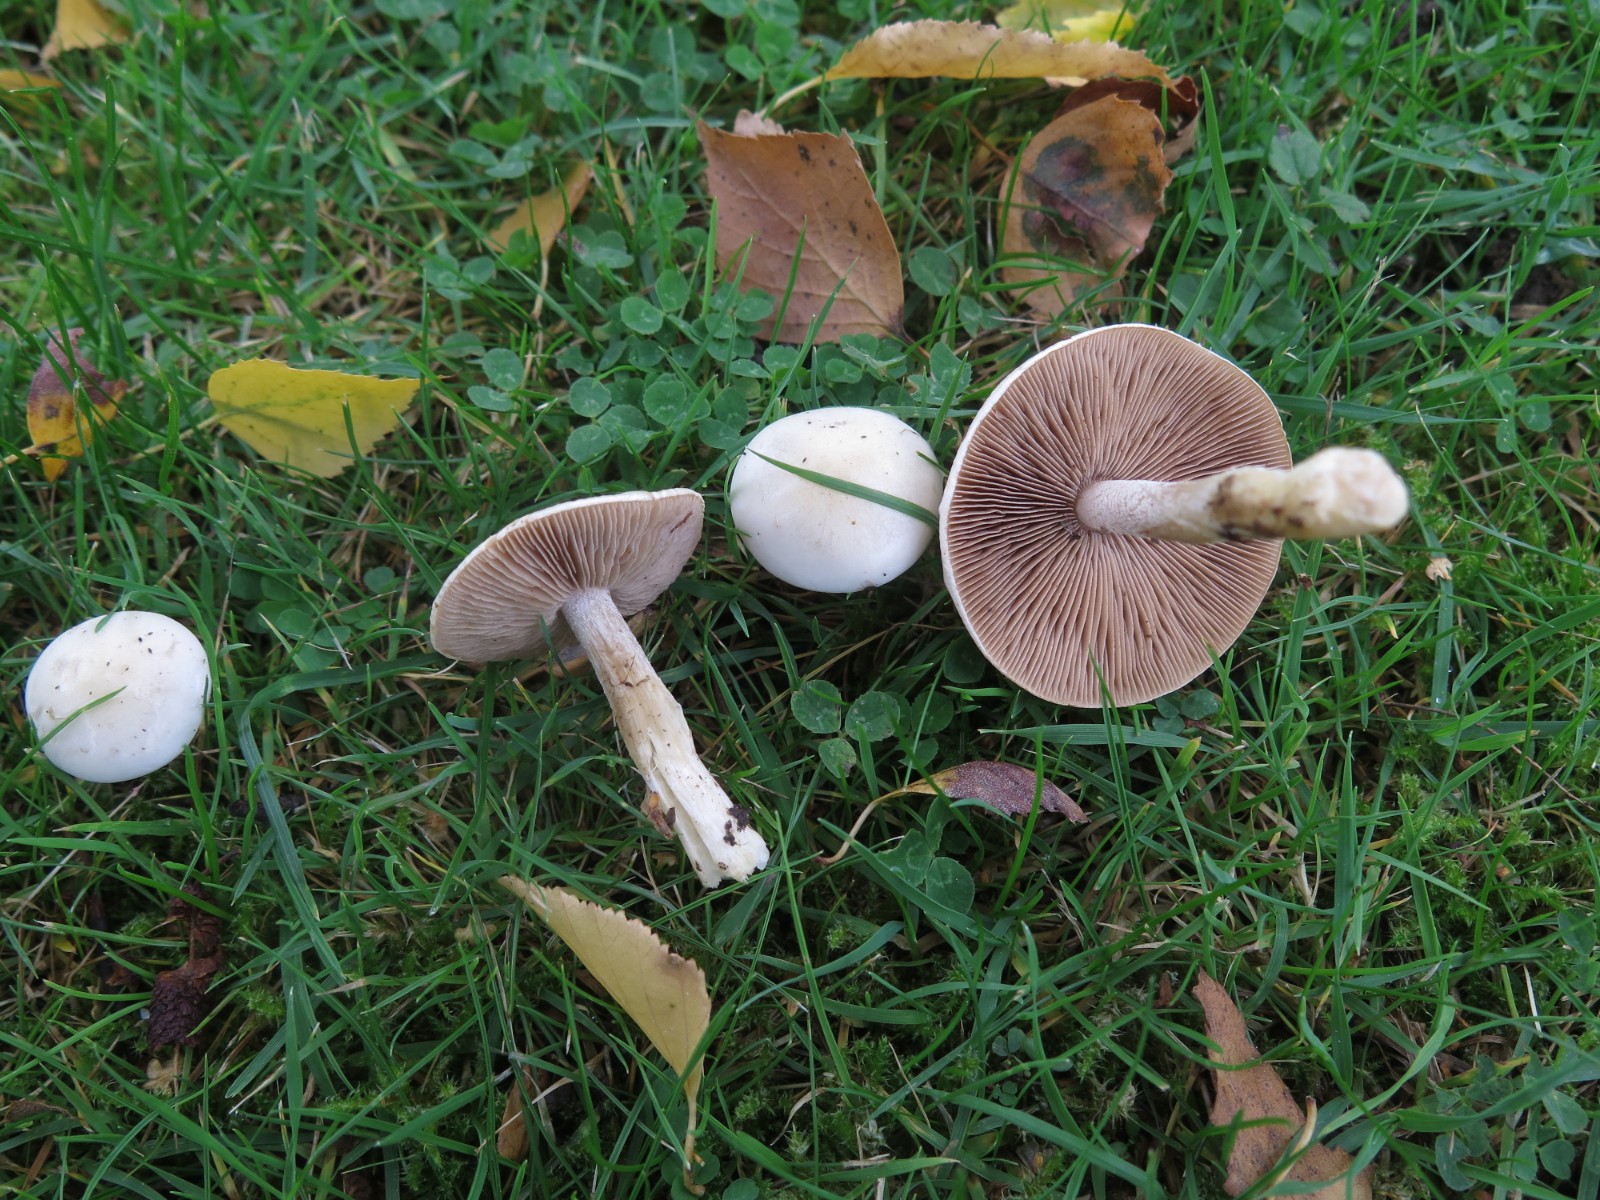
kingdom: Fungi
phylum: Basidiomycota
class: Agaricomycetes
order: Agaricales
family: Hymenogastraceae
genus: Hebeloma
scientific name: Hebeloma
